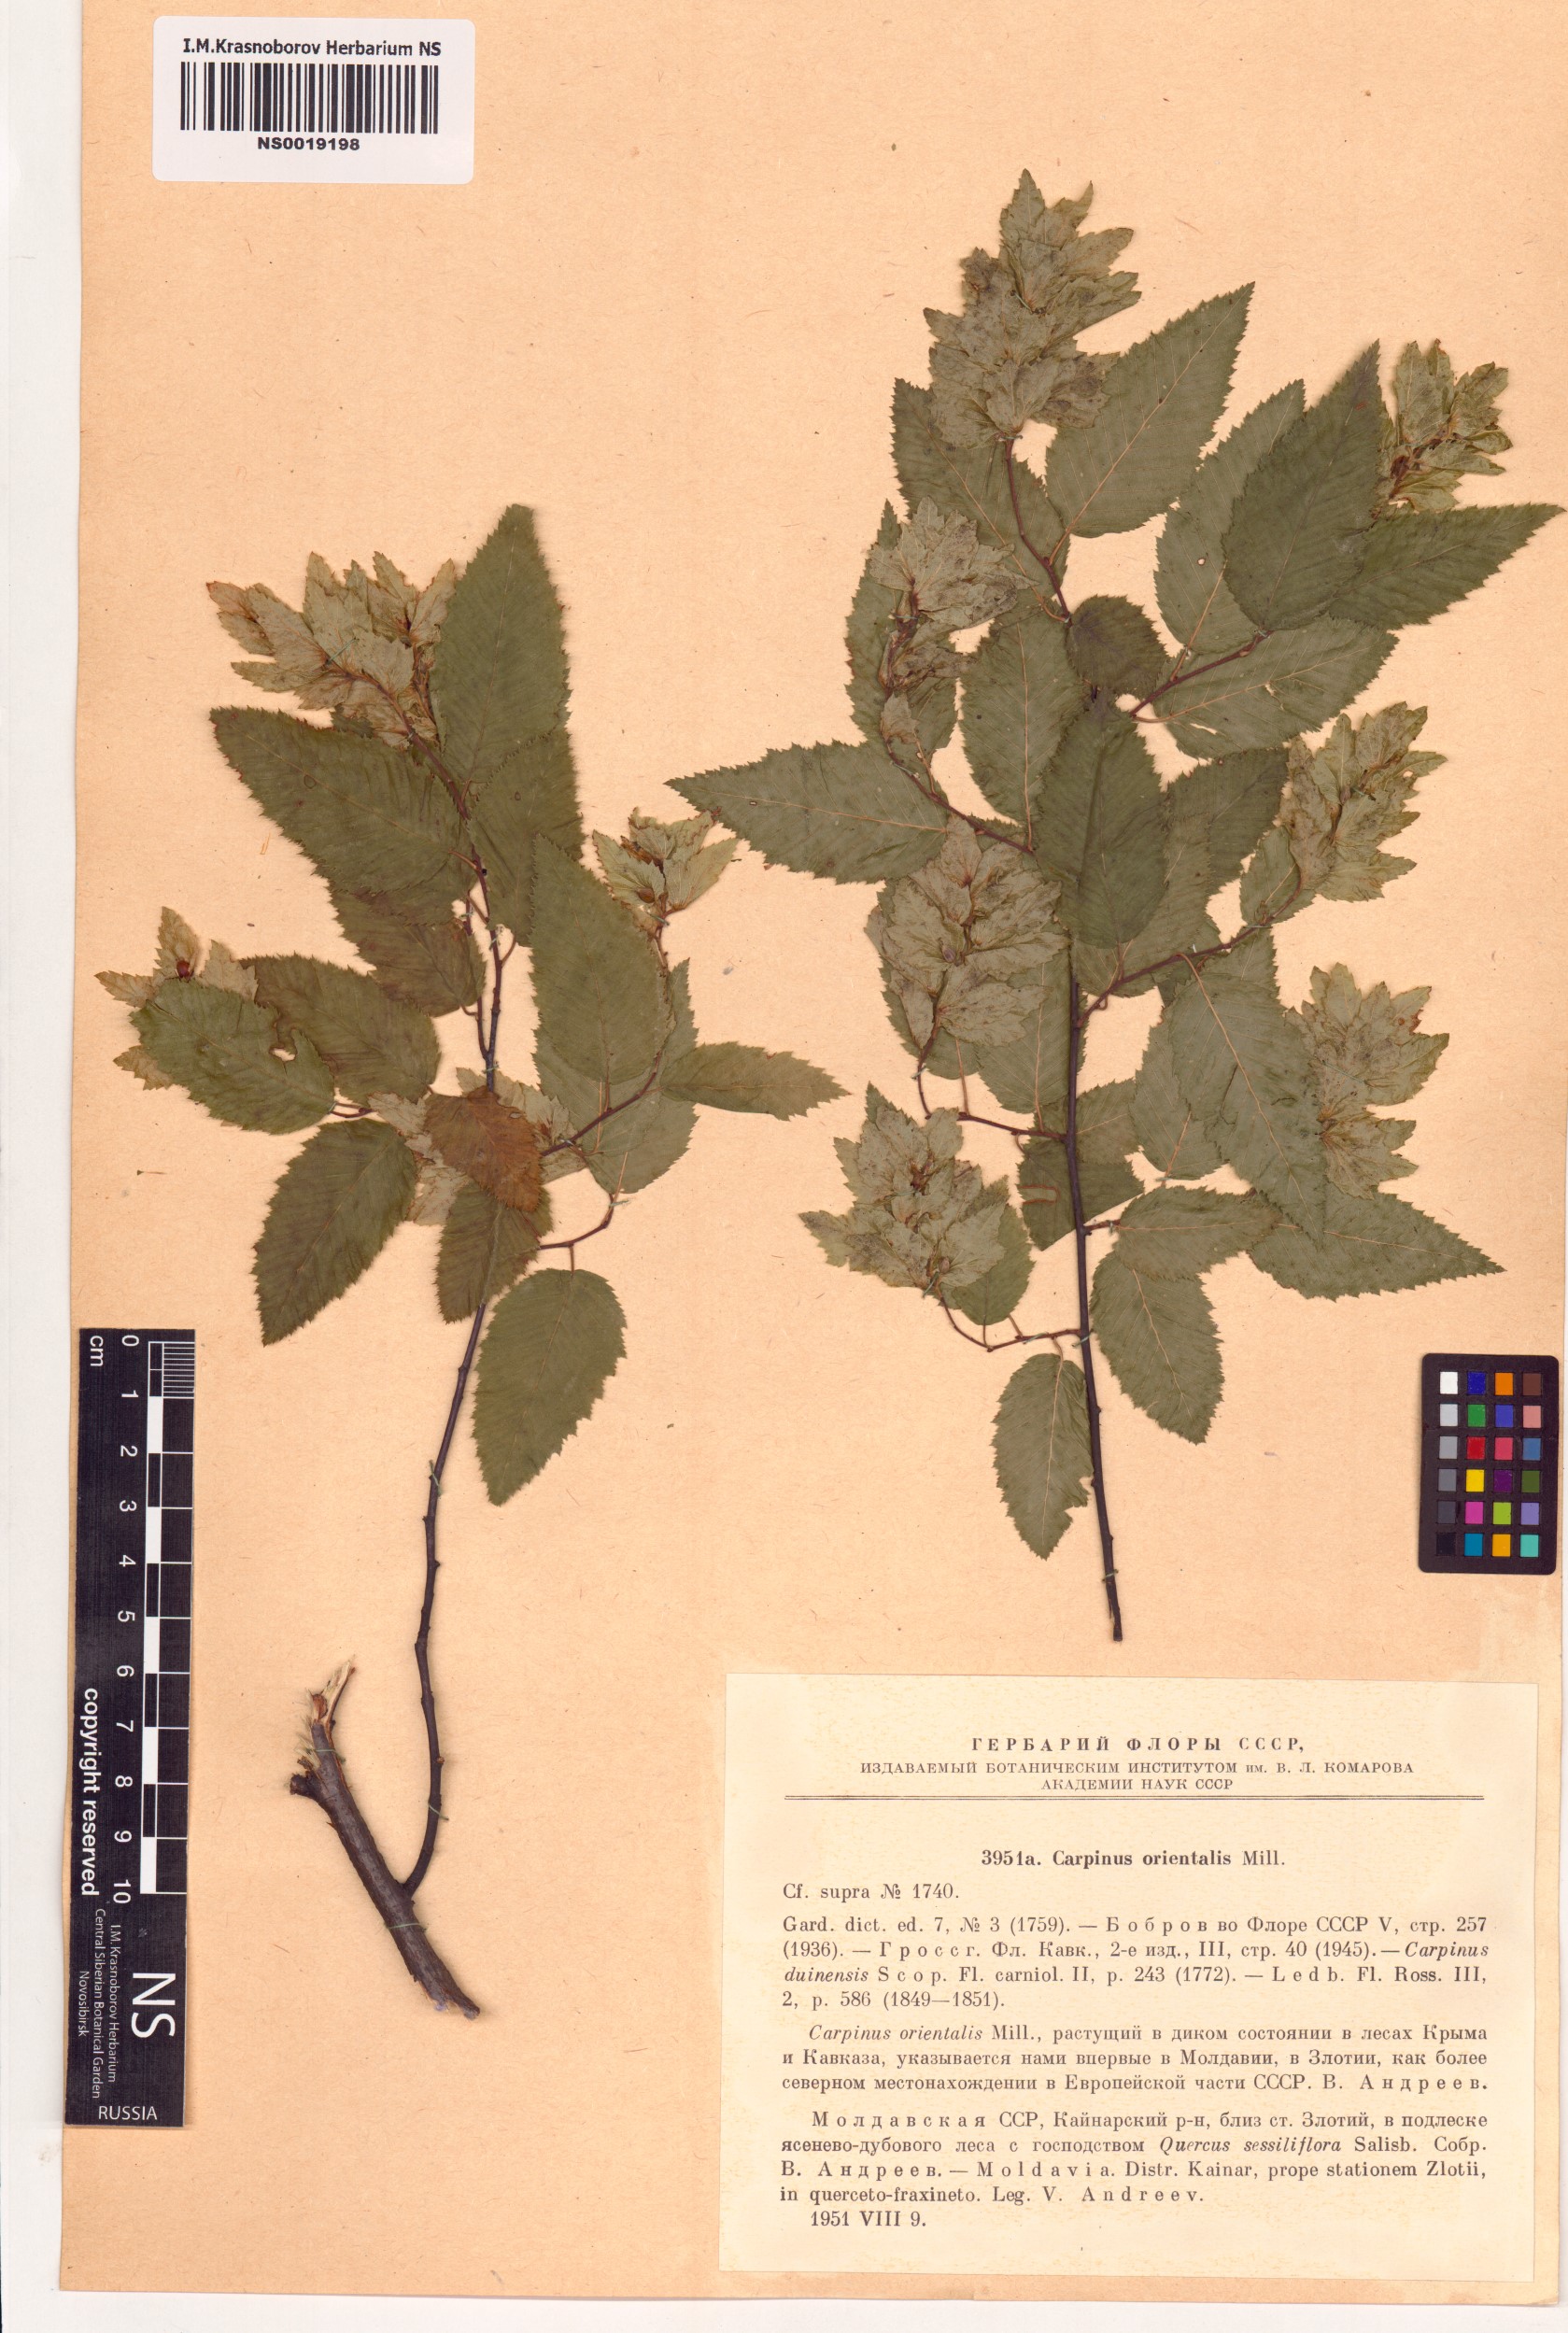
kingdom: Plantae
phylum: Tracheophyta
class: Magnoliopsida
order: Fagales
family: Betulaceae
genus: Carpinus
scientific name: Carpinus orientalis
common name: Eastern hornbeam
